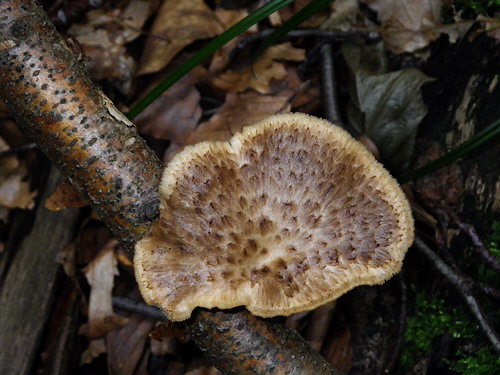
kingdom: Fungi
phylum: Basidiomycota
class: Agaricomycetes
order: Polyporales
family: Polyporaceae
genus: Polyporus
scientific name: Polyporus tuberaster
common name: knoldet stilkporesvamp
